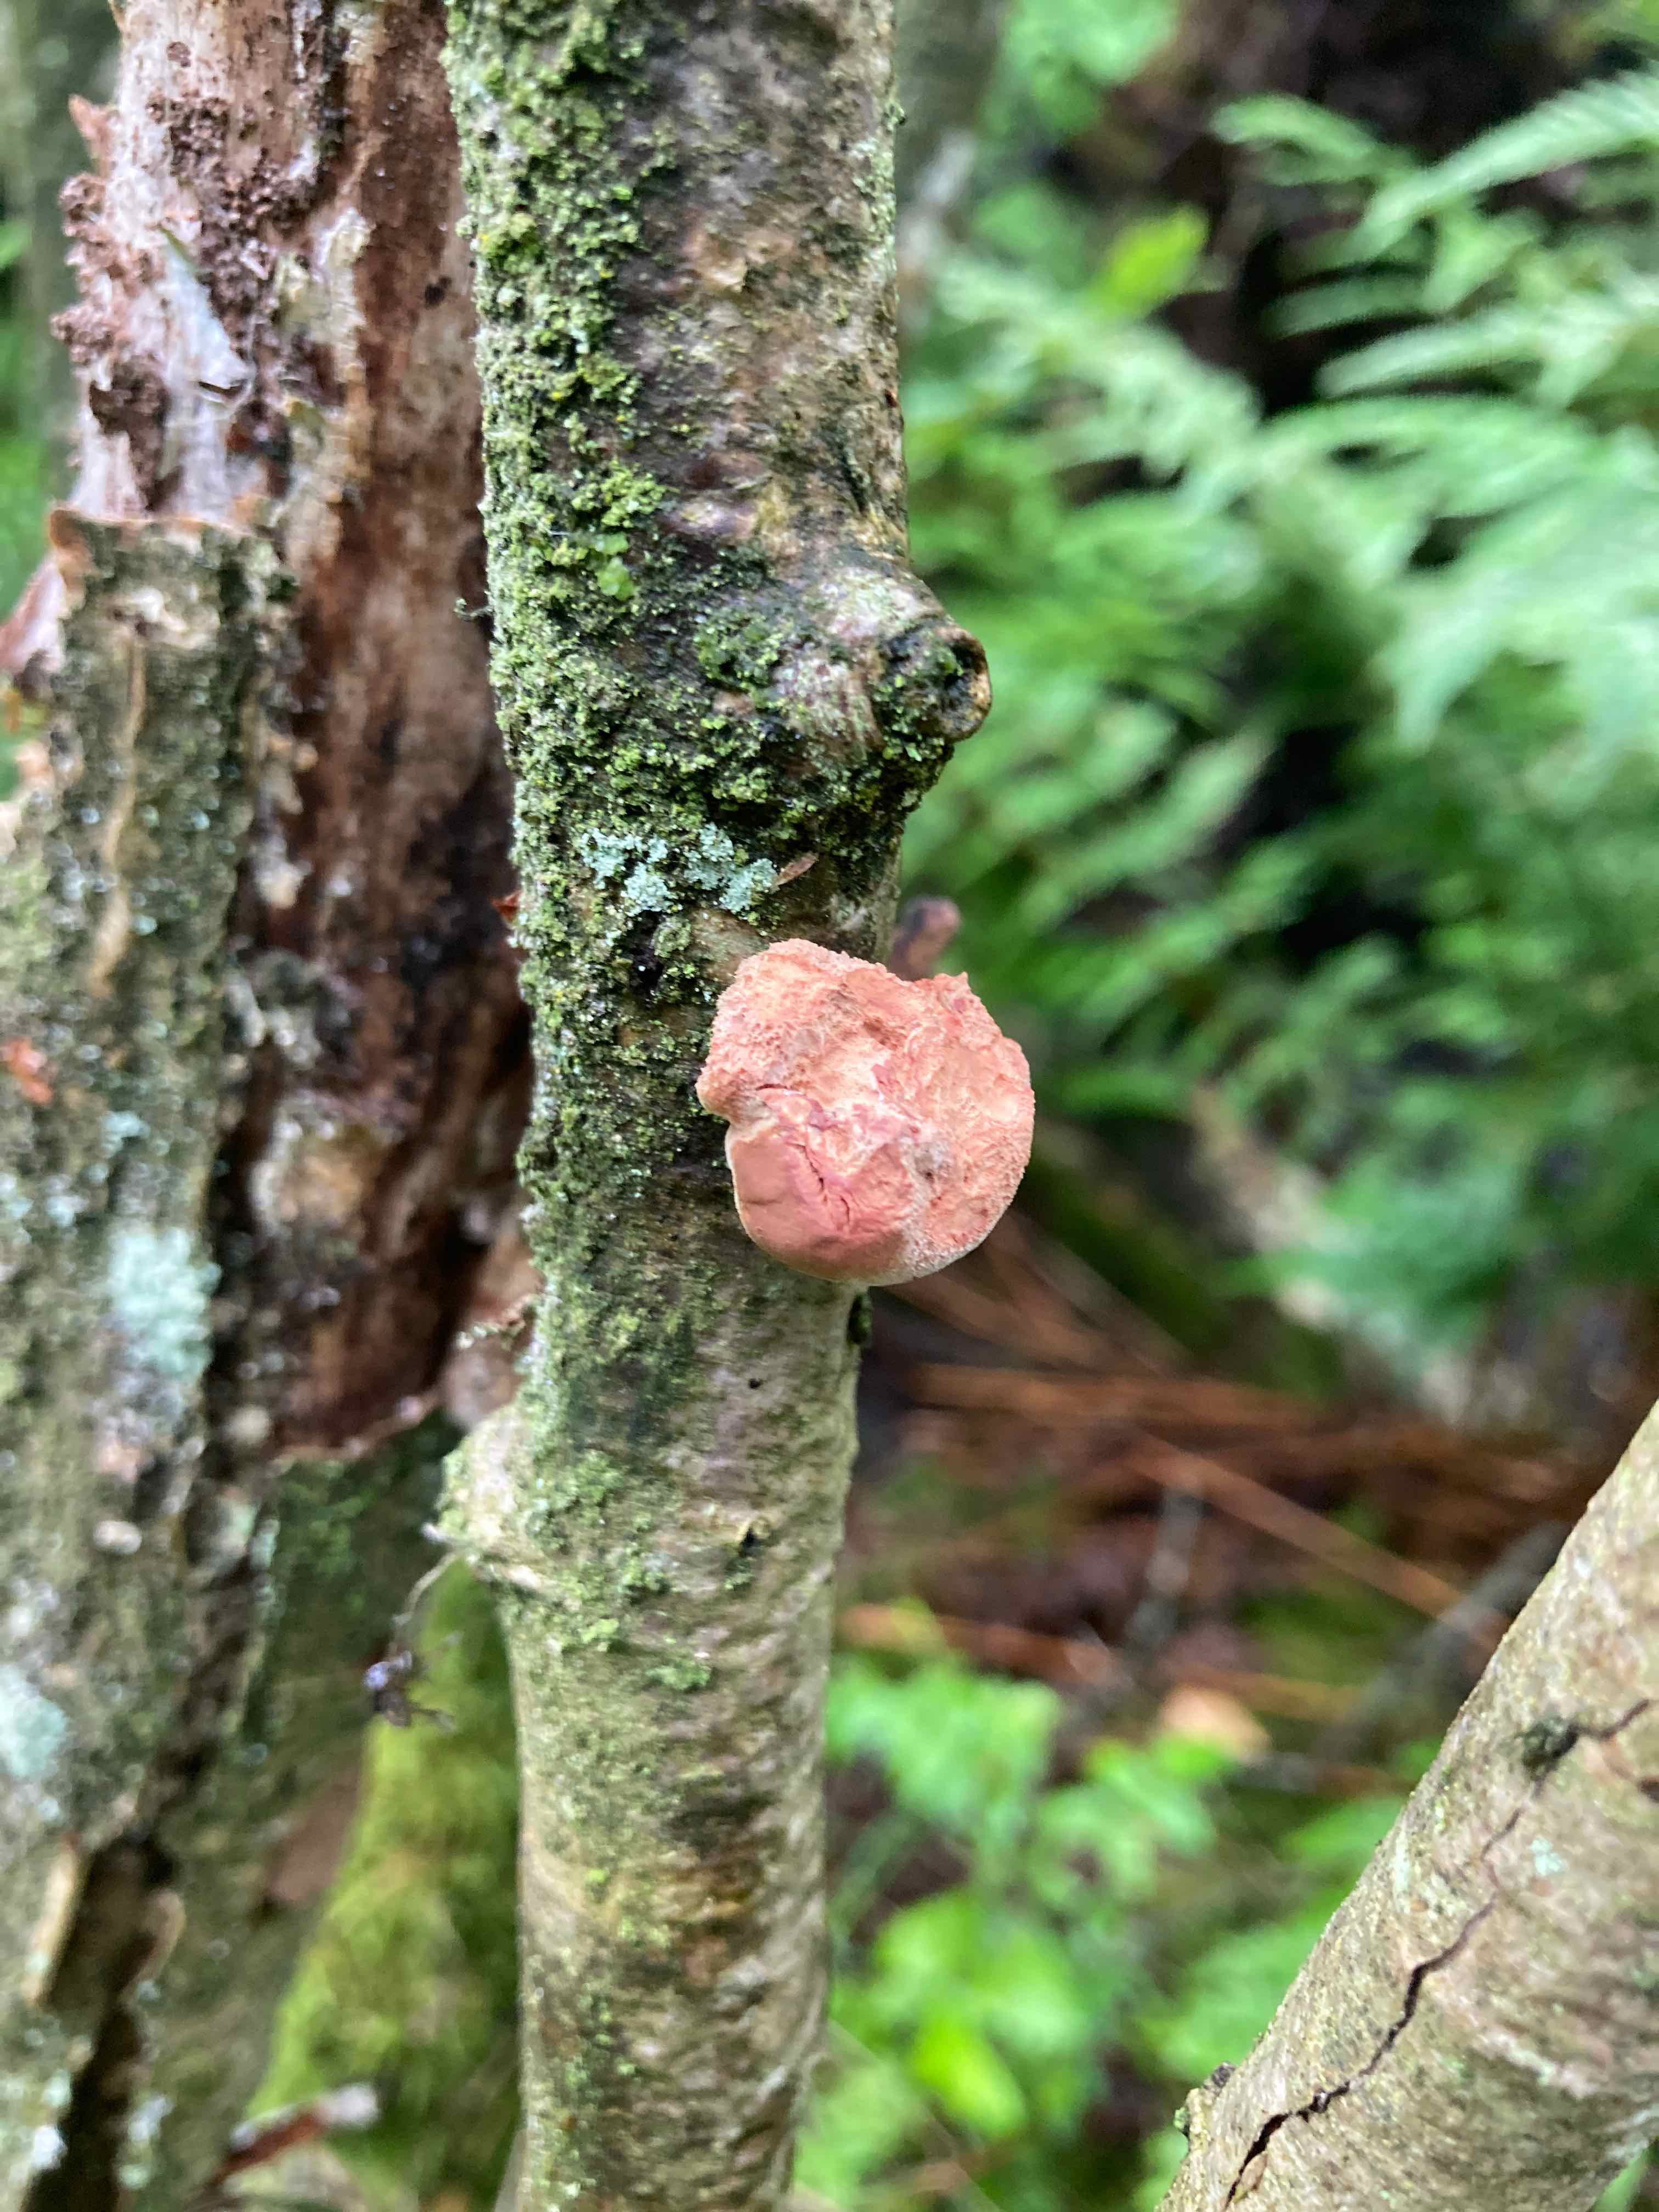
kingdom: Fungi
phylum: Basidiomycota
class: Agaricomycetes
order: Polyporales
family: Phanerochaetaceae
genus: Hapalopilus
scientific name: Hapalopilus rutilans
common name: rødlig okkerporesvamp
